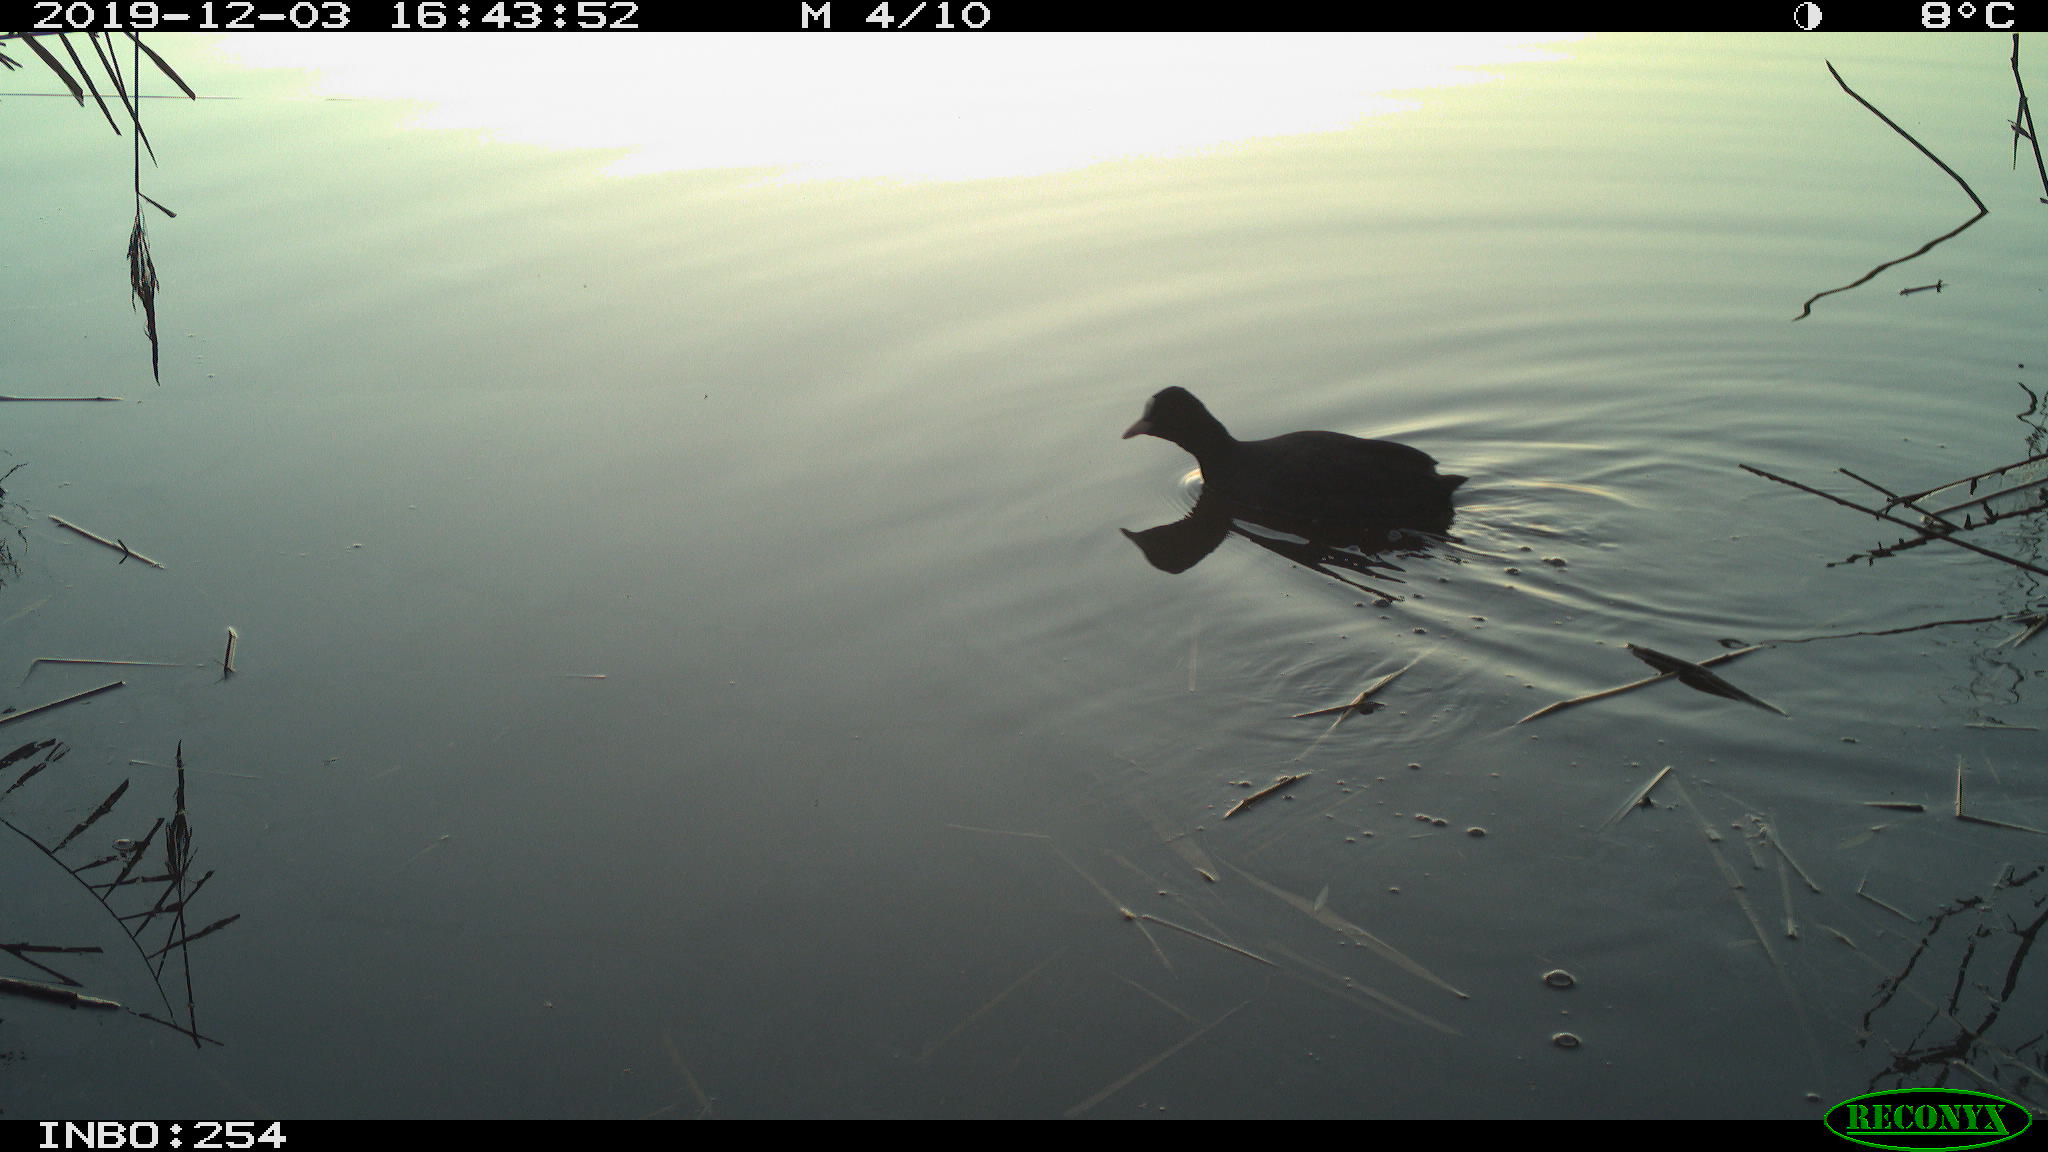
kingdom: Animalia
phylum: Chordata
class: Aves
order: Gruiformes
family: Rallidae
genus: Gallinula
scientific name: Gallinula chloropus
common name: Common moorhen
